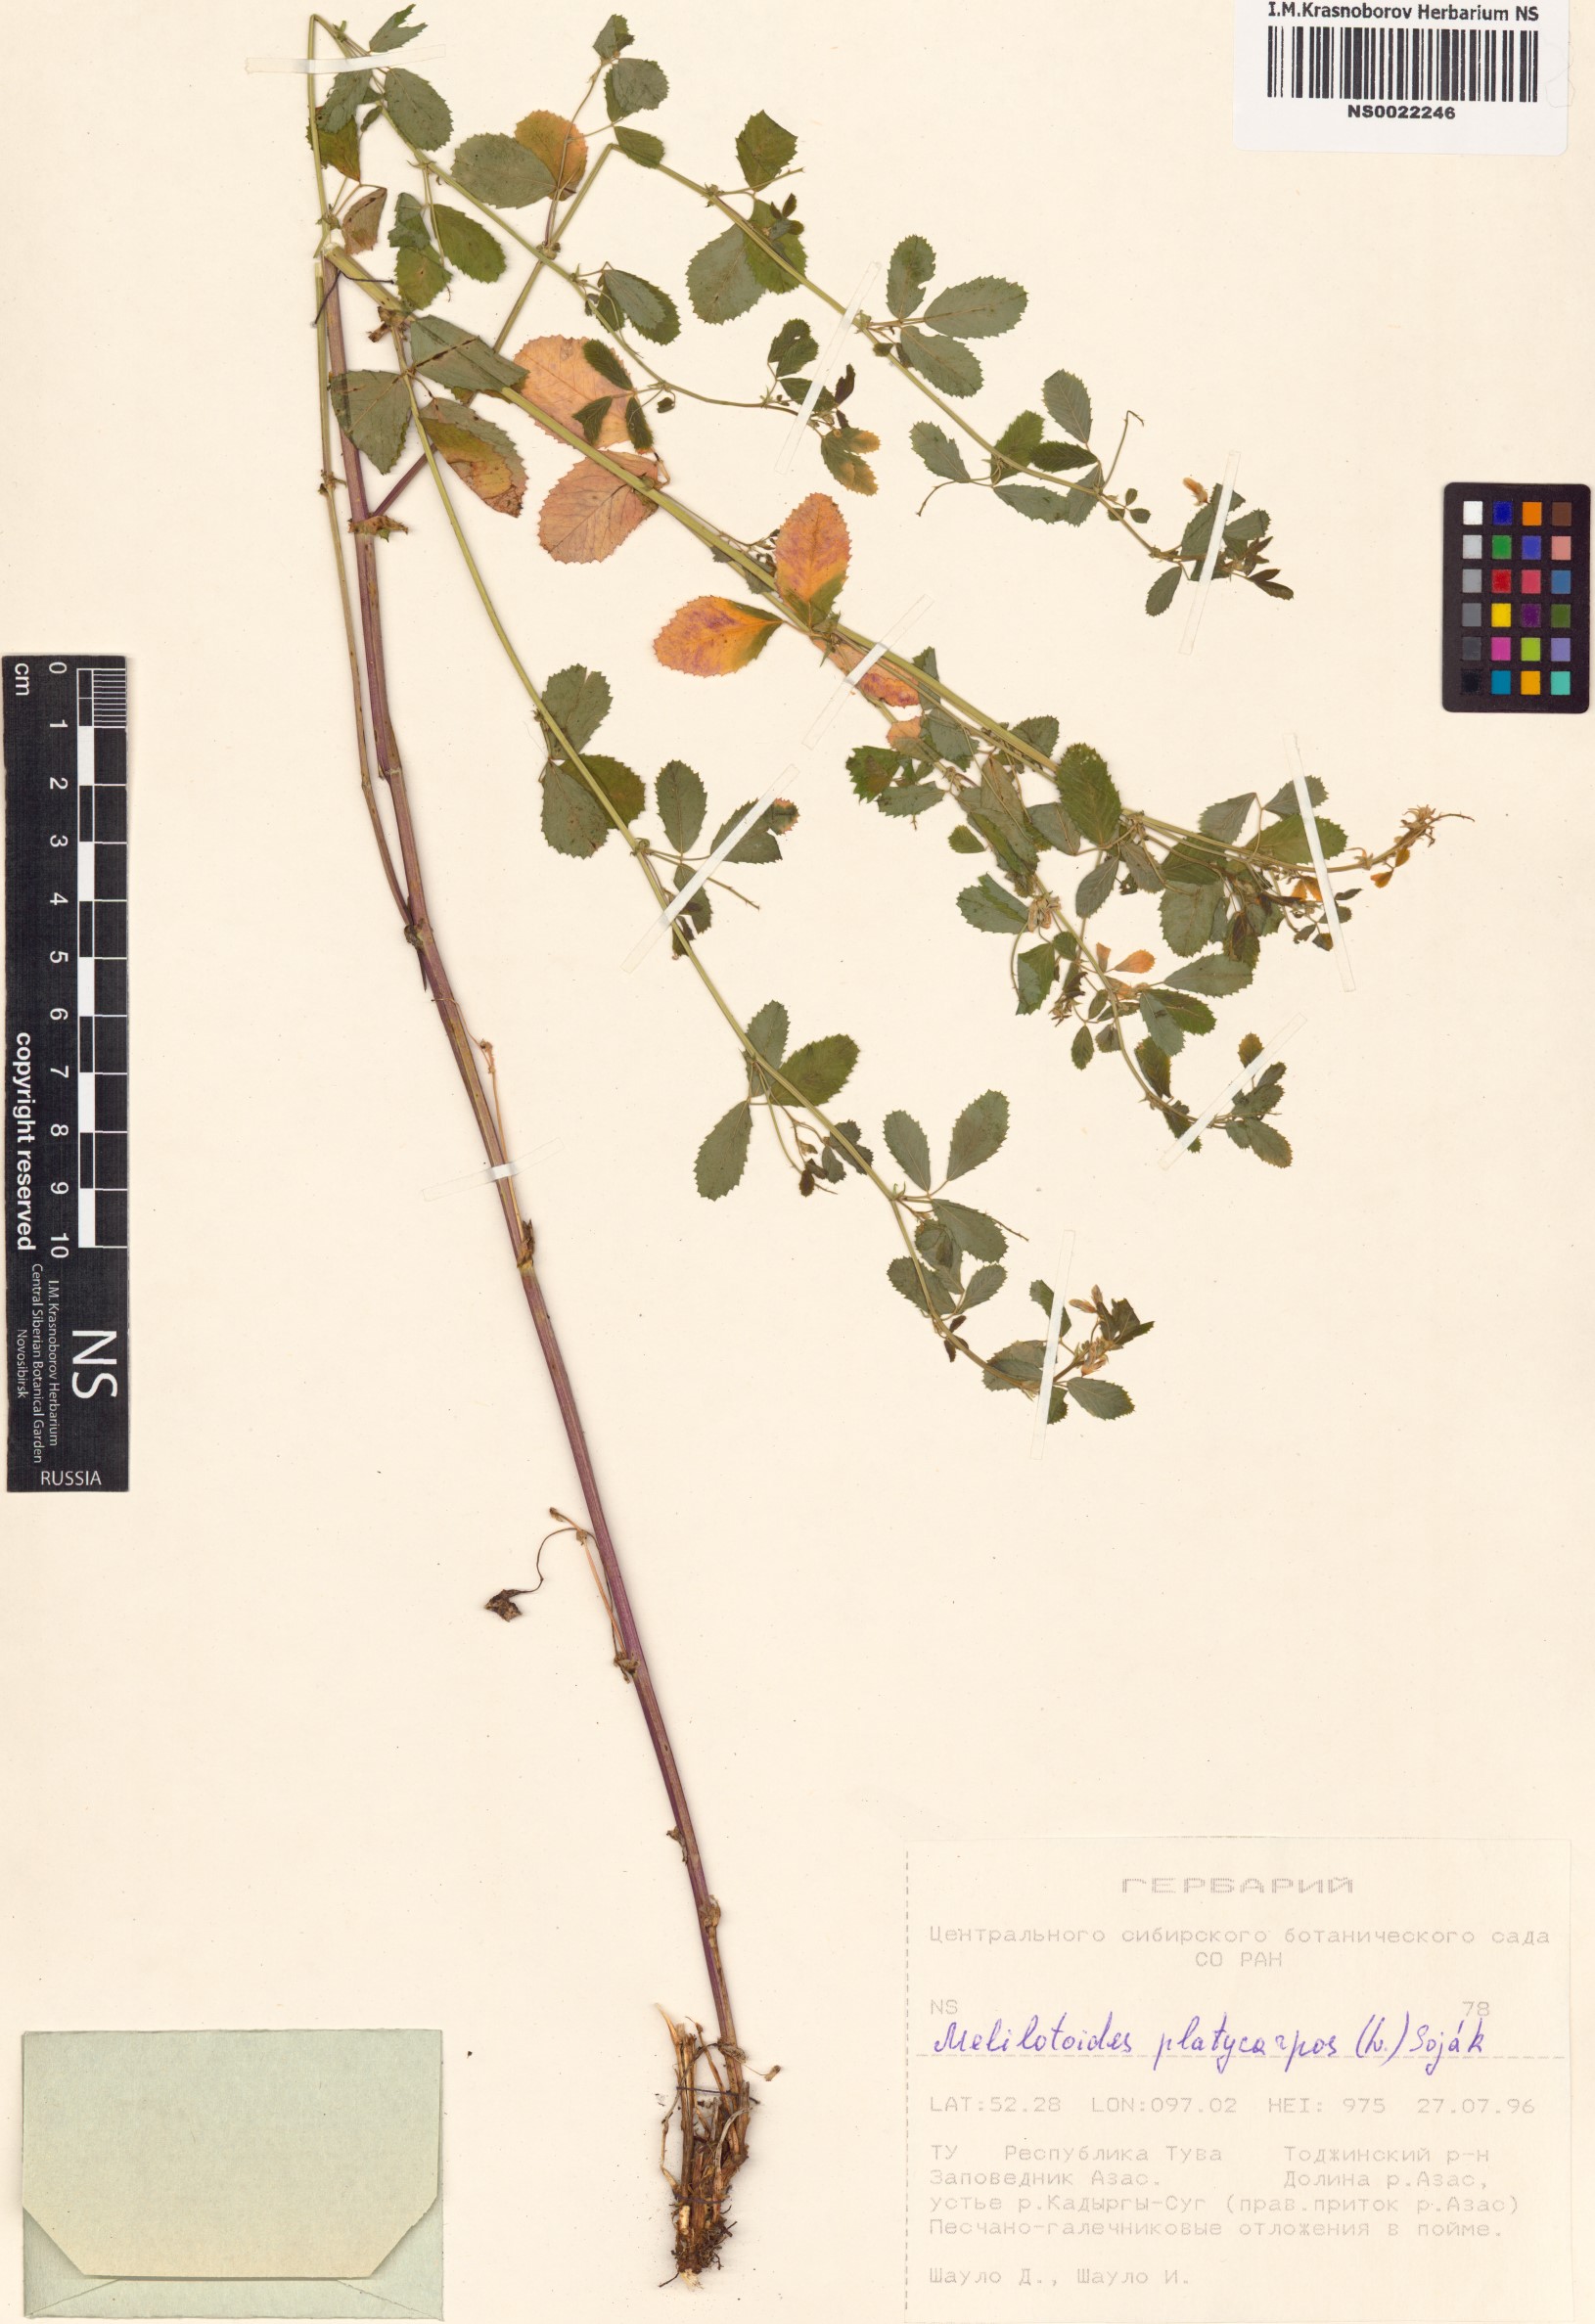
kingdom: Plantae
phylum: Tracheophyta
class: Magnoliopsida
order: Fabales
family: Fabaceae
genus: Medicago
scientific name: Medicago platycarpos
